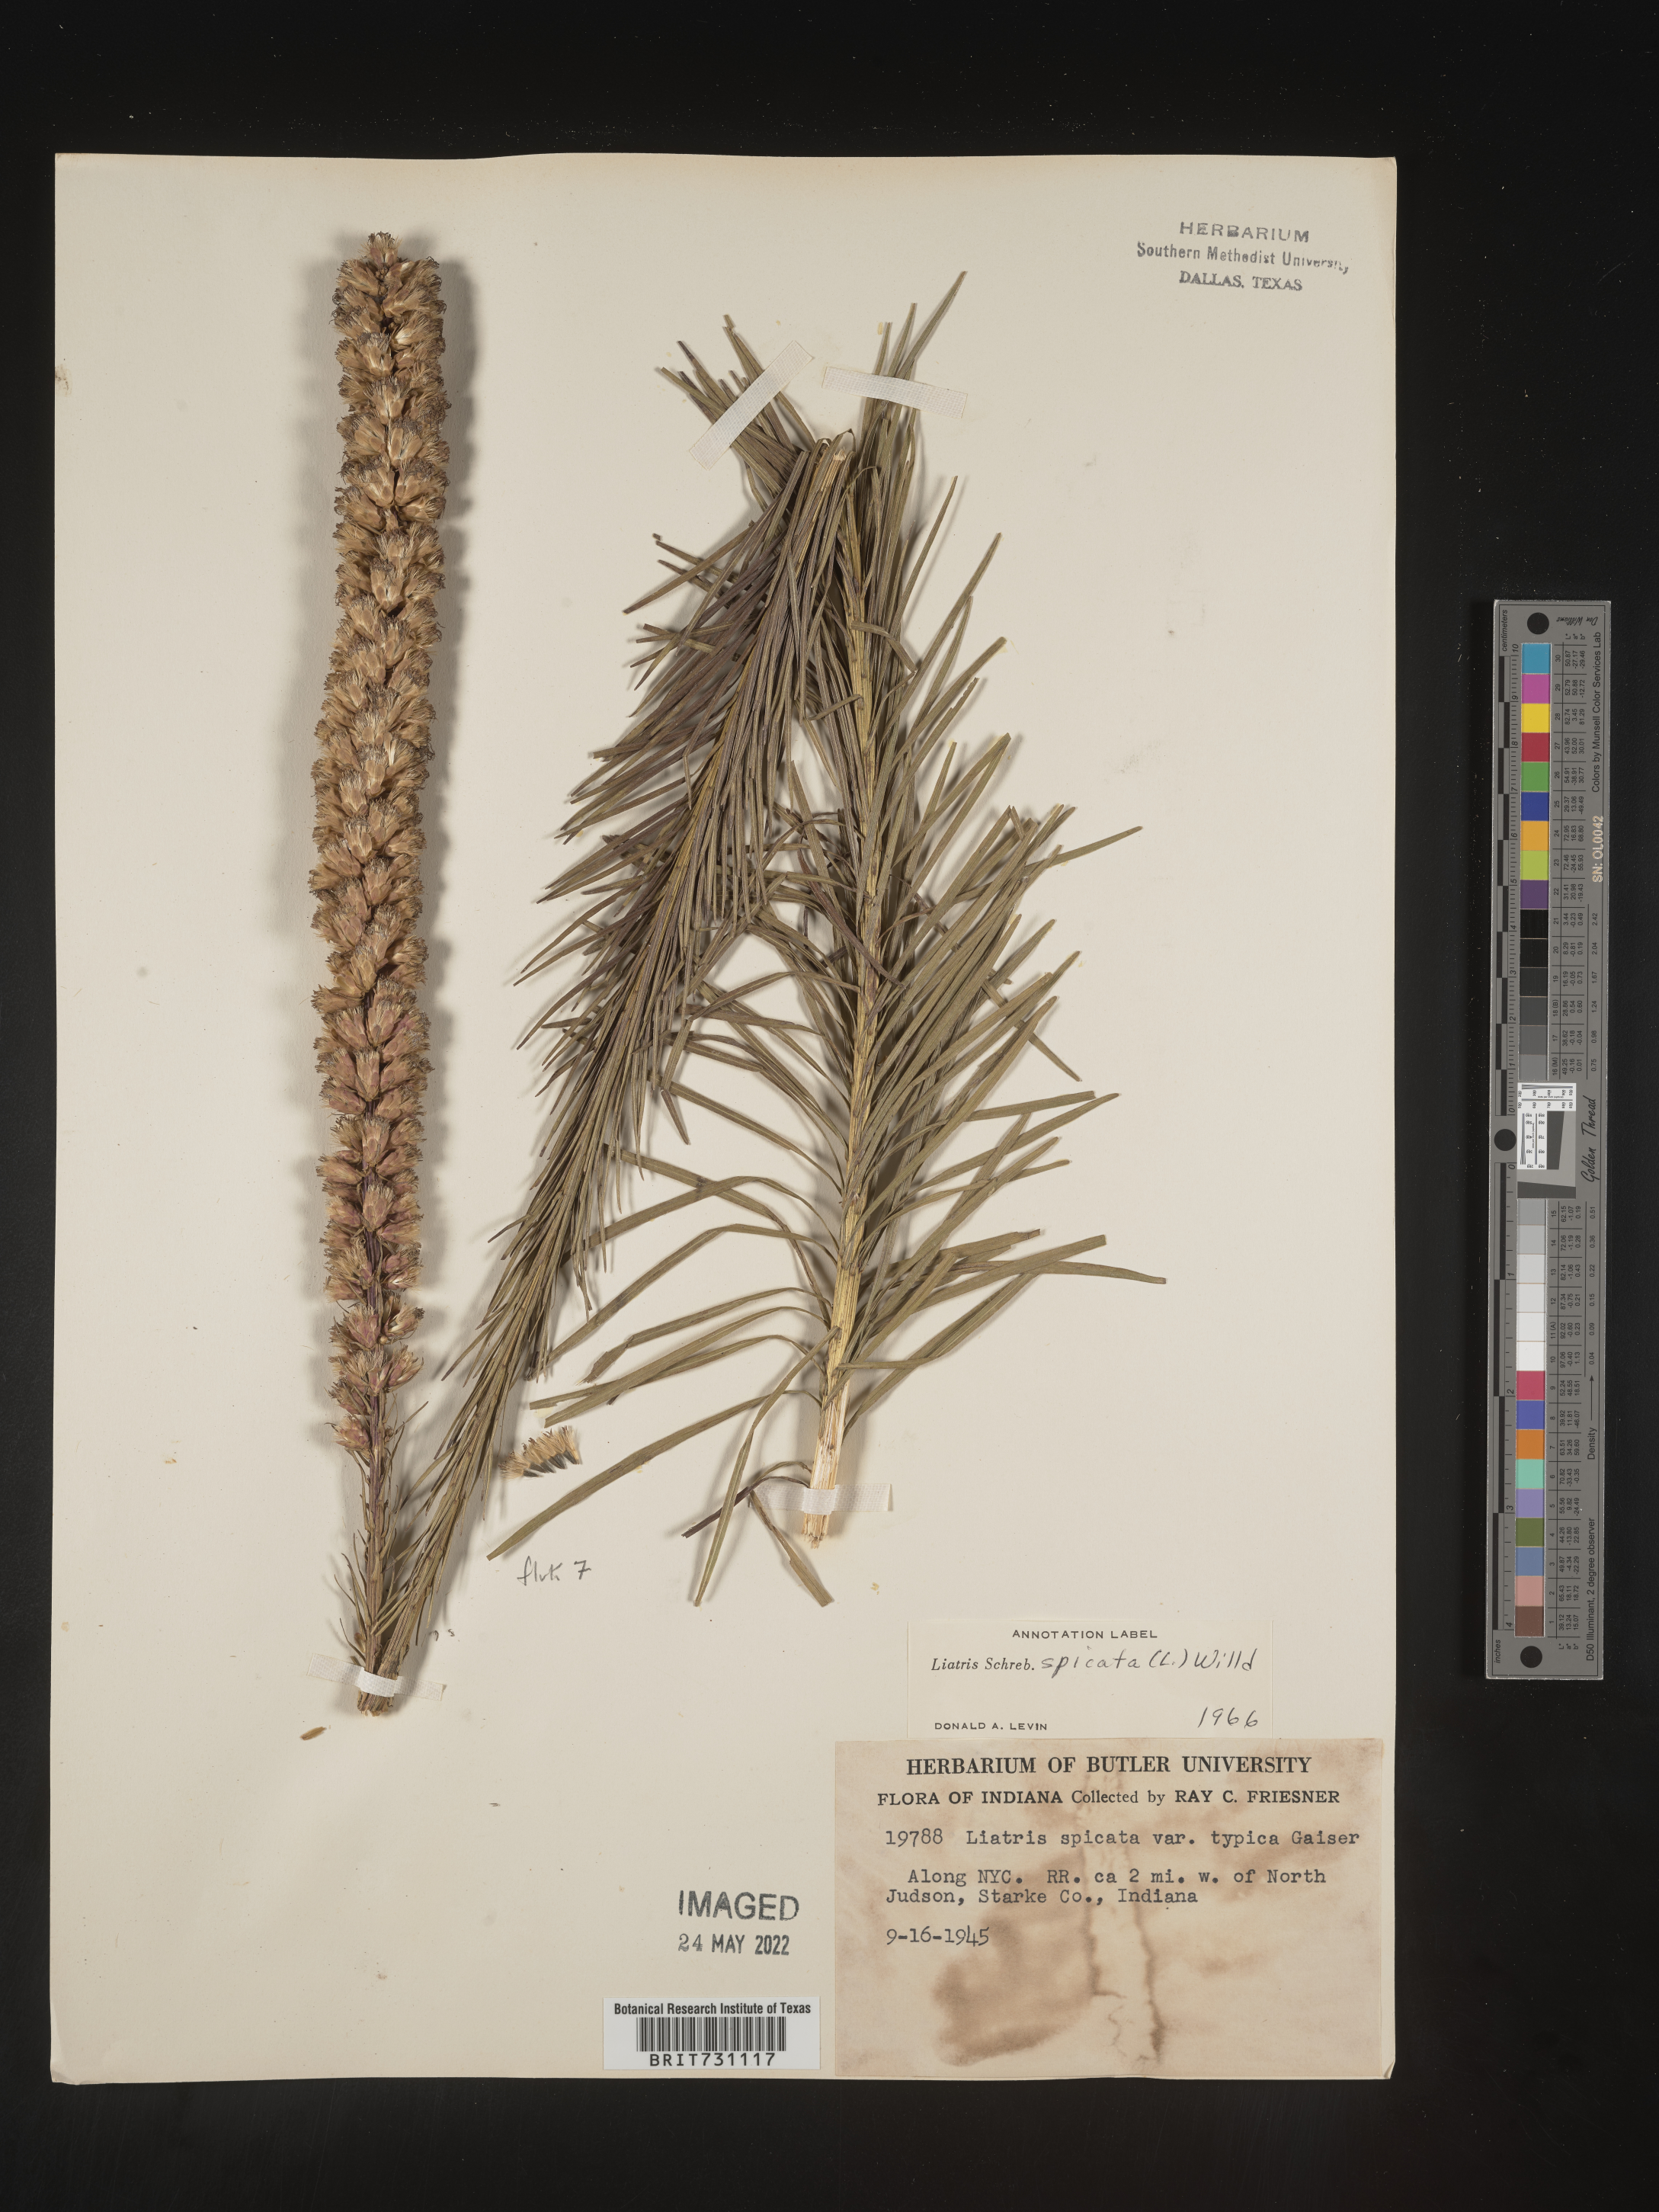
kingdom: Plantae
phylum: Tracheophyta
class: Magnoliopsida
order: Asterales
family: Asteraceae
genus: Liatris
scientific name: Liatris spicata
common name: Florist gayfeather
